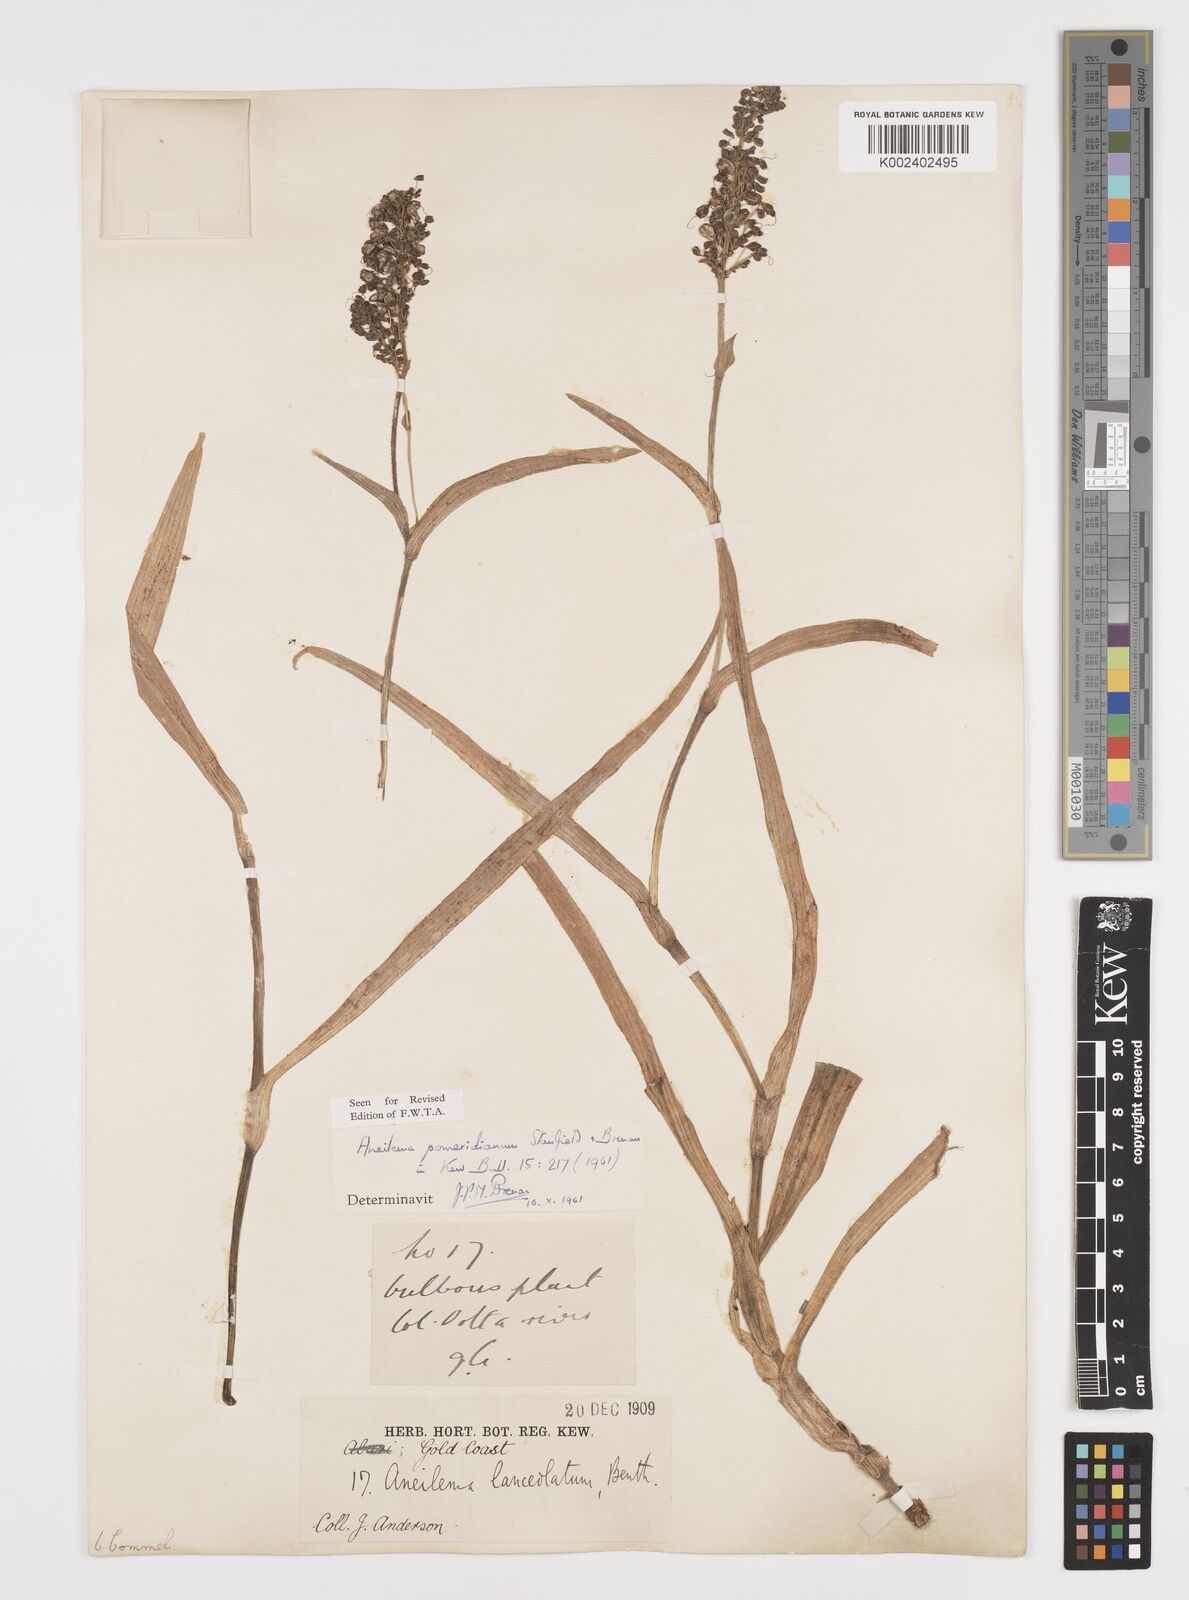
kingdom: Plantae
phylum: Tracheophyta
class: Liliopsida
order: Commelinales
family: Commelinaceae
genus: Aneilema
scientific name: Aneilema pomeridianum
